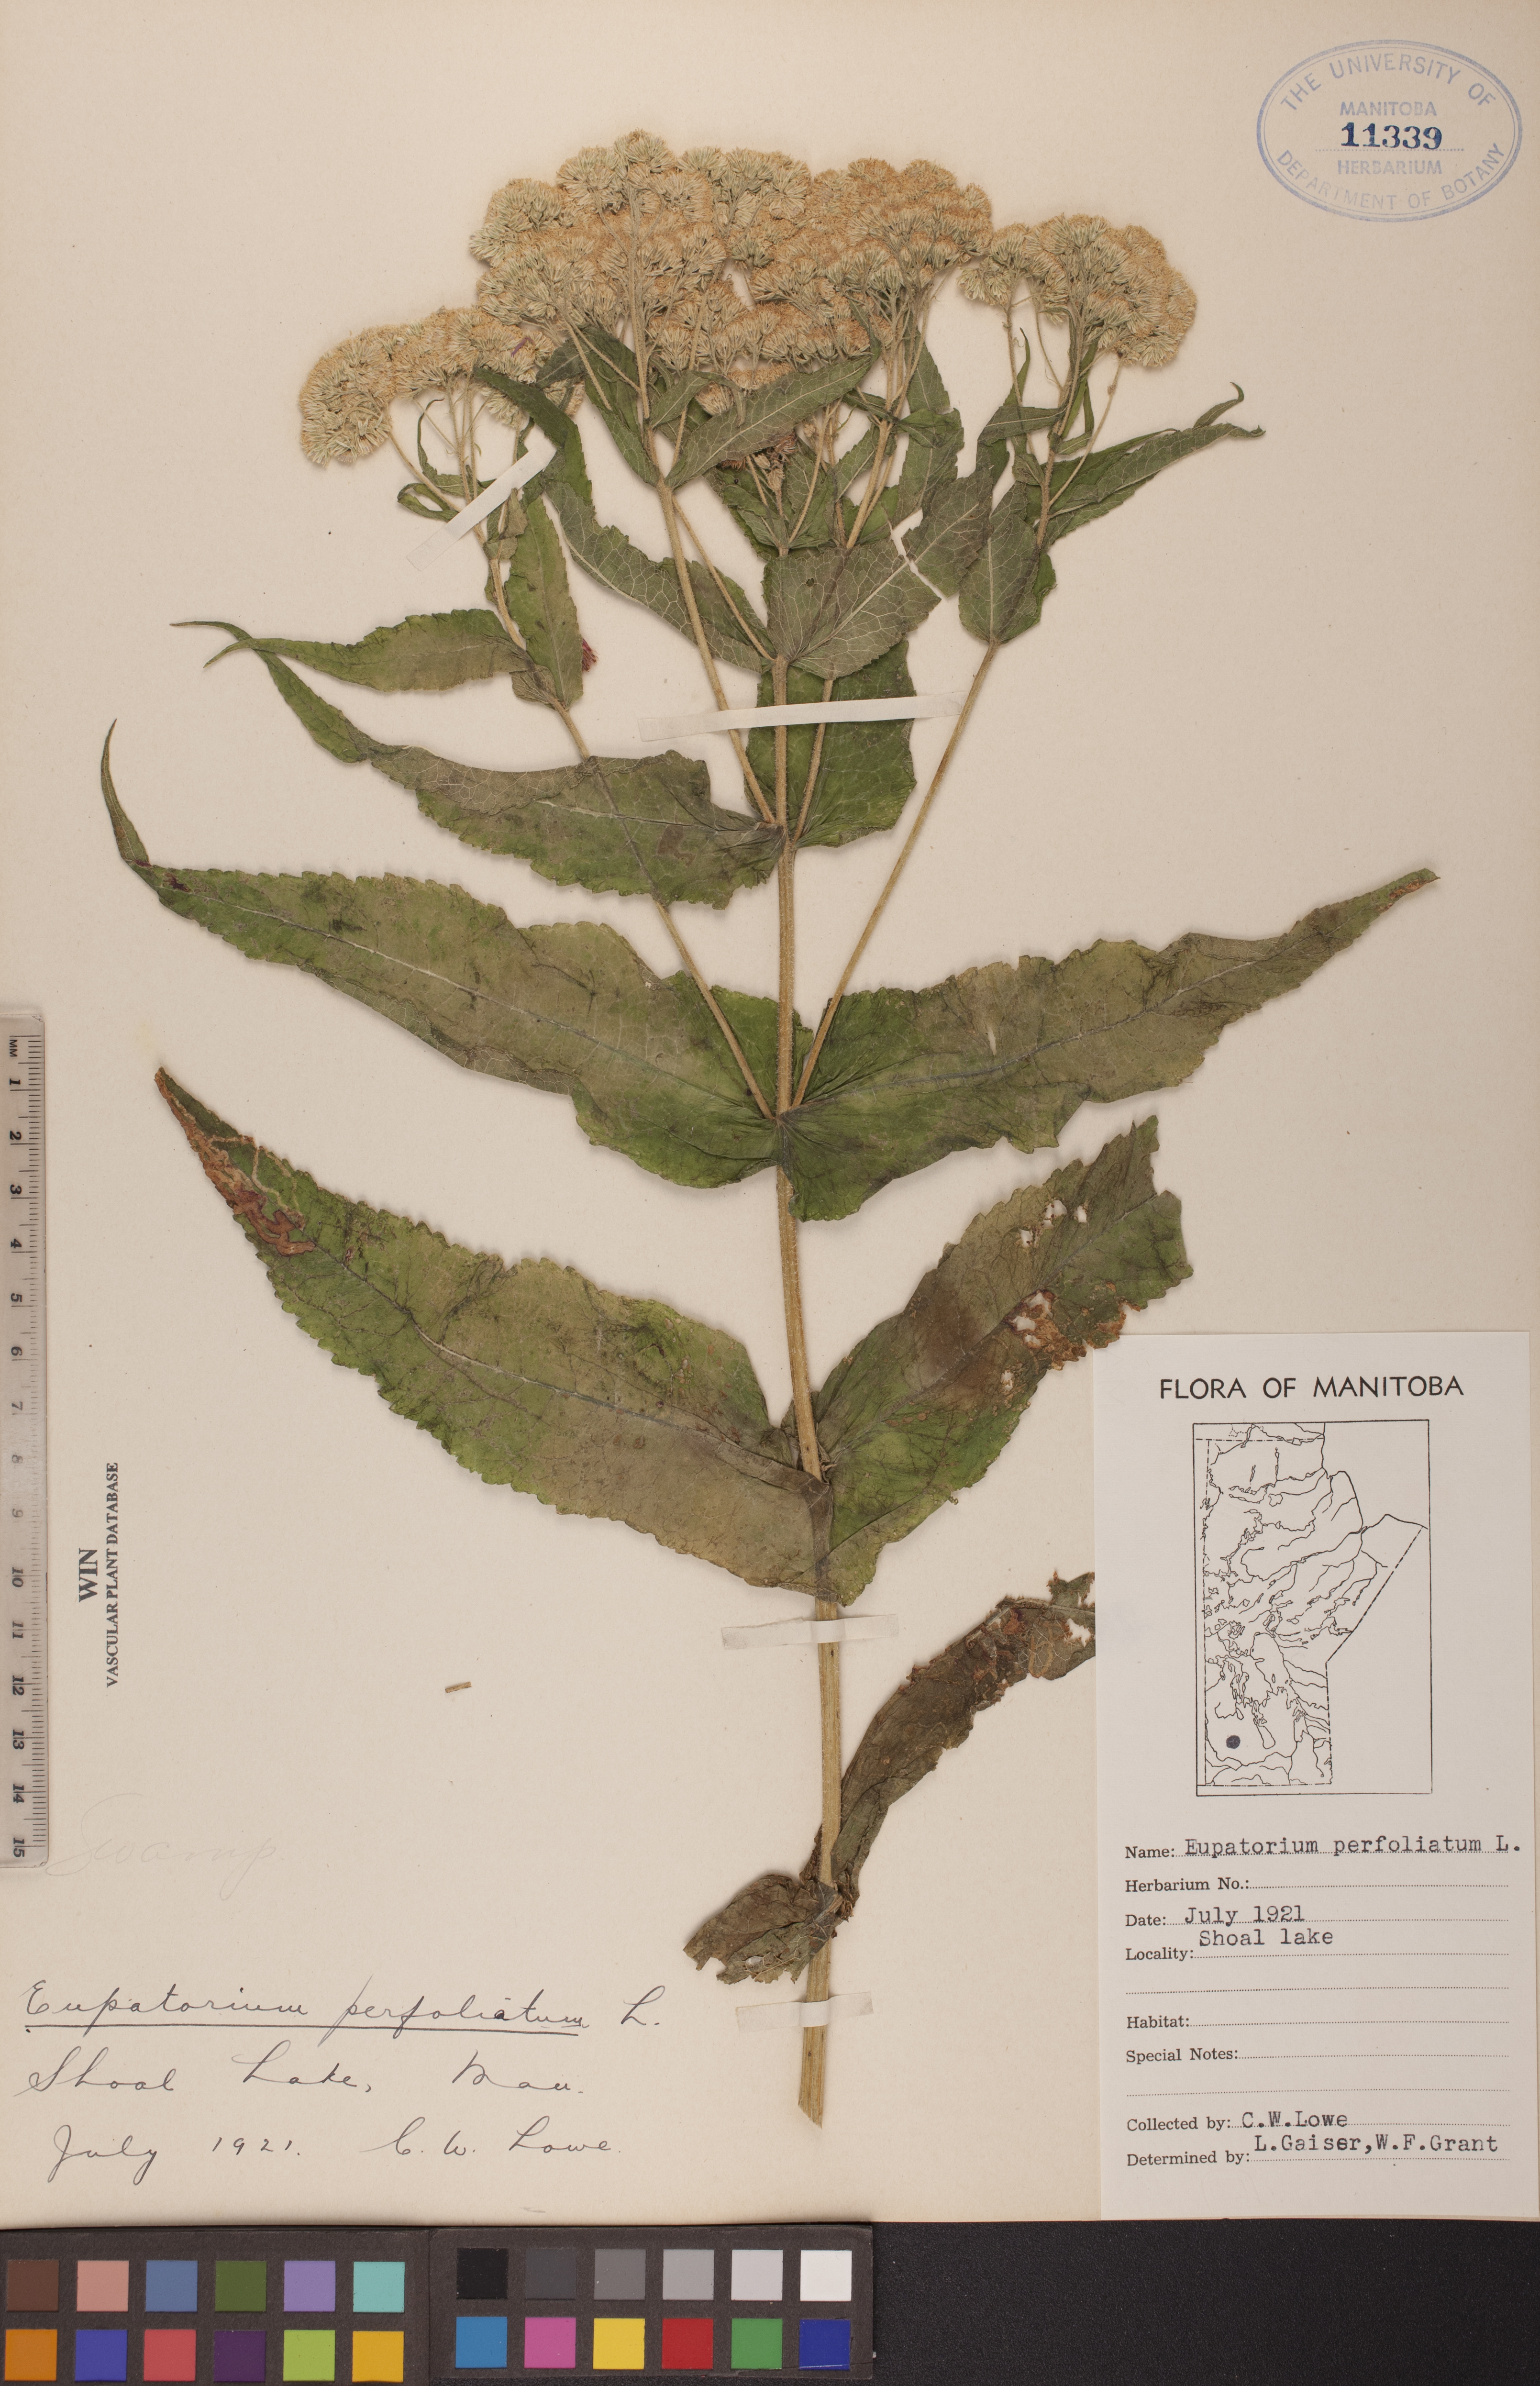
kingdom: Plantae
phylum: Tracheophyta
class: Magnoliopsida
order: Asterales
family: Asteraceae
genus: Eupatorium
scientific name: Eupatorium perfoliatum
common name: Boneset
